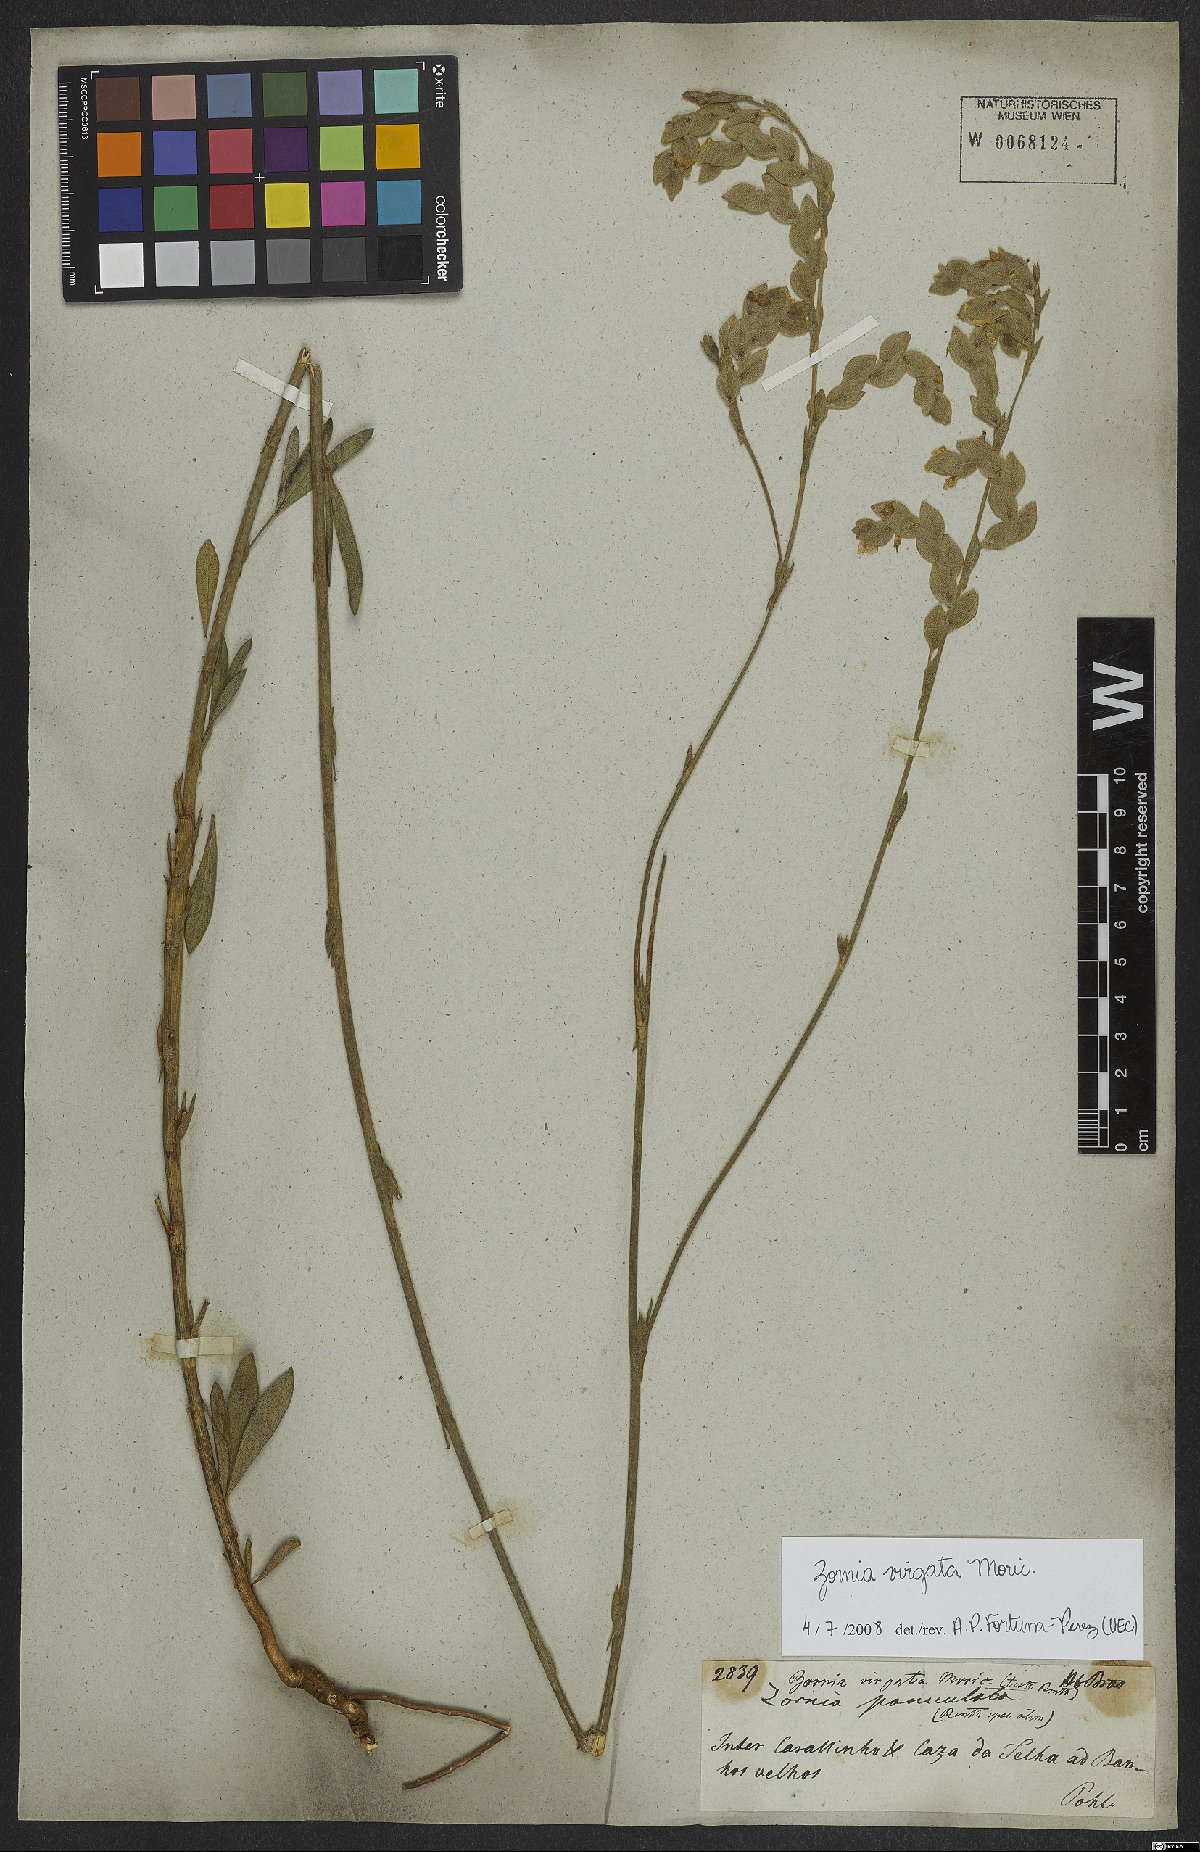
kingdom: Plantae
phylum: Tracheophyta
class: Magnoliopsida
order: Fabales
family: Fabaceae
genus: Zornia
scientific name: Zornia virgata
